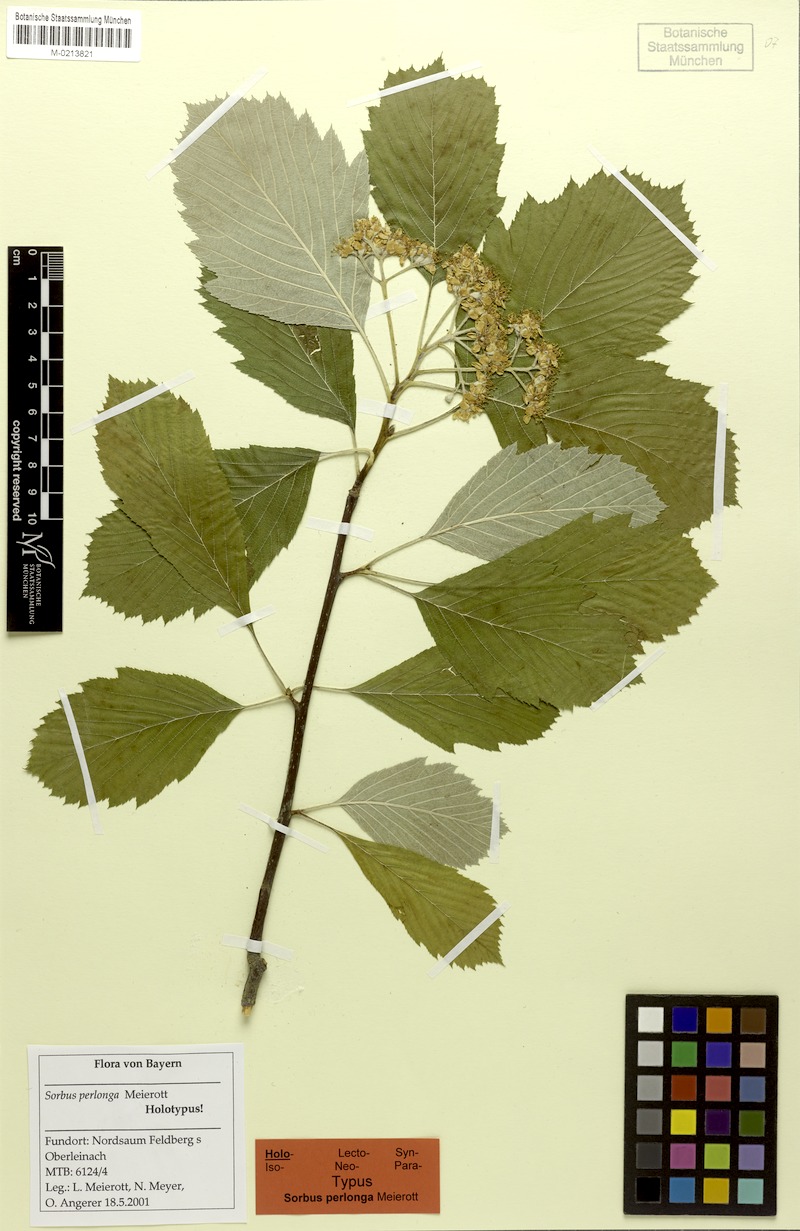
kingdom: Plantae
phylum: Tracheophyta
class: Magnoliopsida
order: Rosales
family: Rosaceae
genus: Karpatiosorbus
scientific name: Karpatiosorbus perlonga
